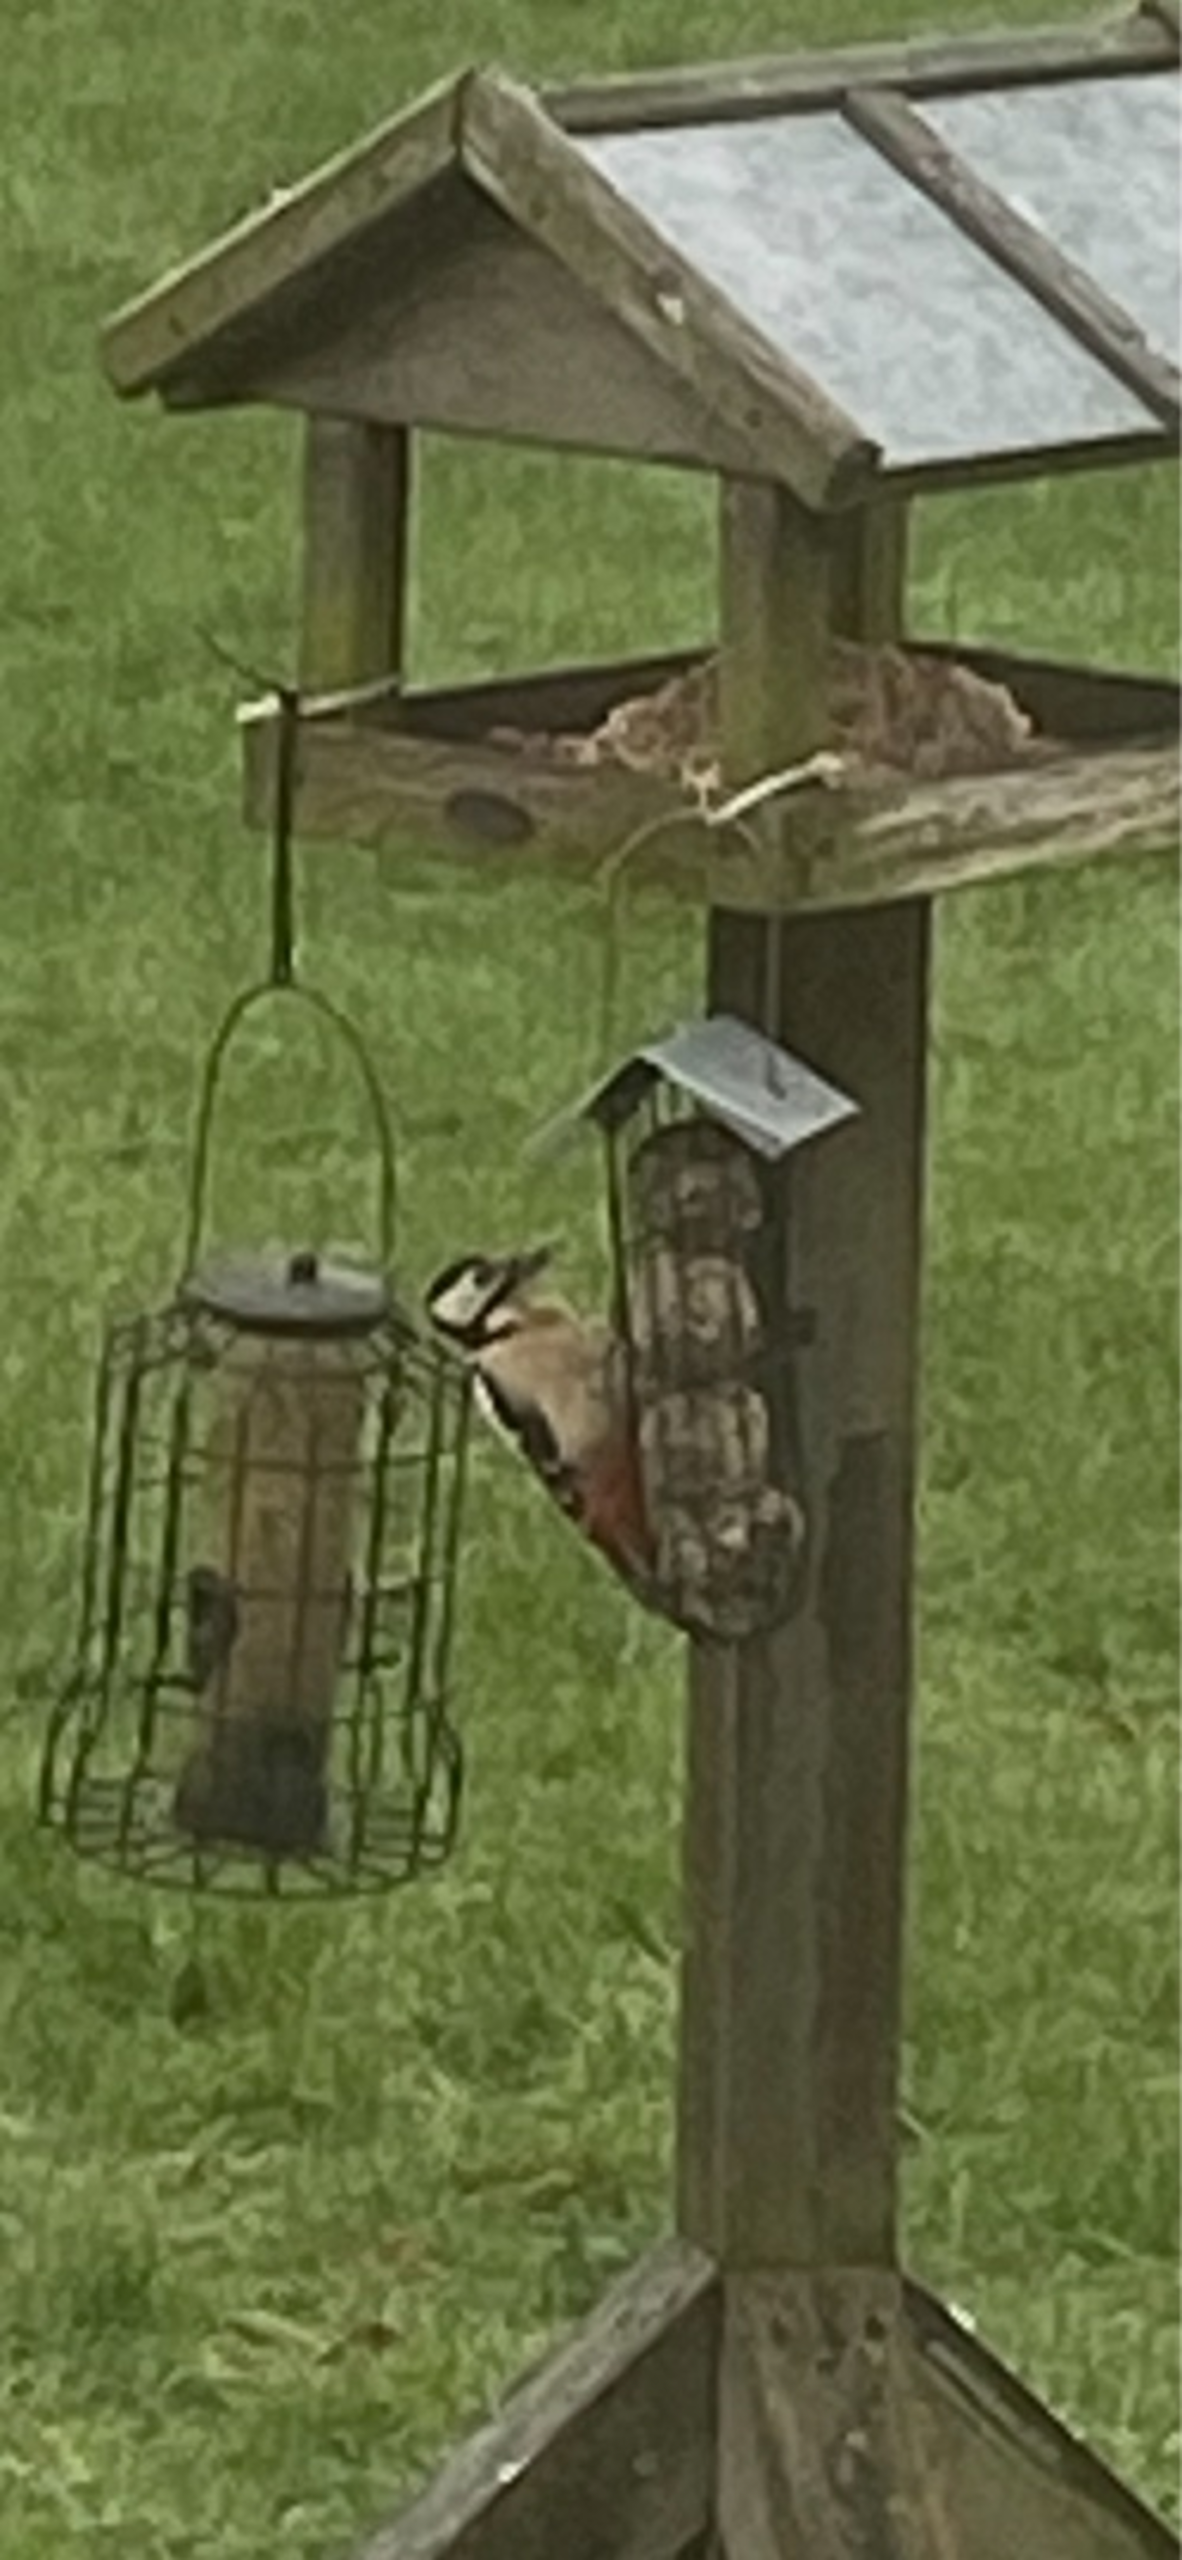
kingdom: Animalia
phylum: Chordata
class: Aves
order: Piciformes
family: Picidae
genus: Dendrocopos
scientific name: Dendrocopos major
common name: Stor flagspætte
